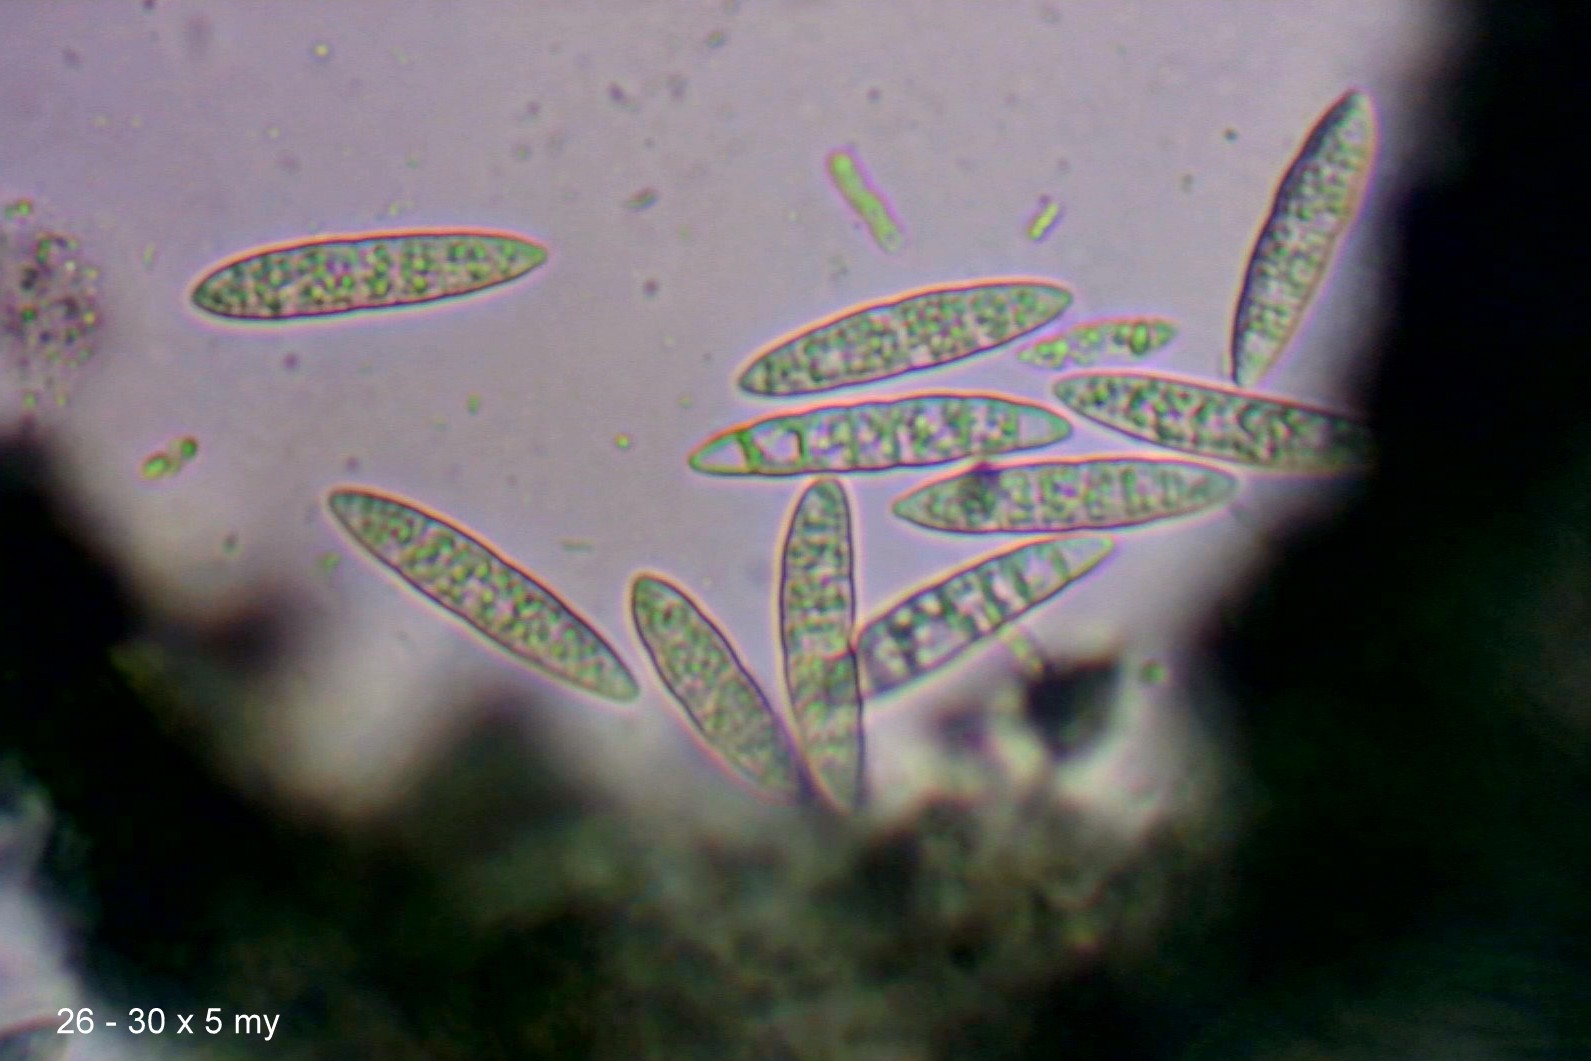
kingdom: Fungi
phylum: Ascomycota
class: Lecanoromycetes
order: Lecanorales
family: Byssolomataceae
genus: Micarea
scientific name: Micarea lignaria
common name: tørve-knaplav
